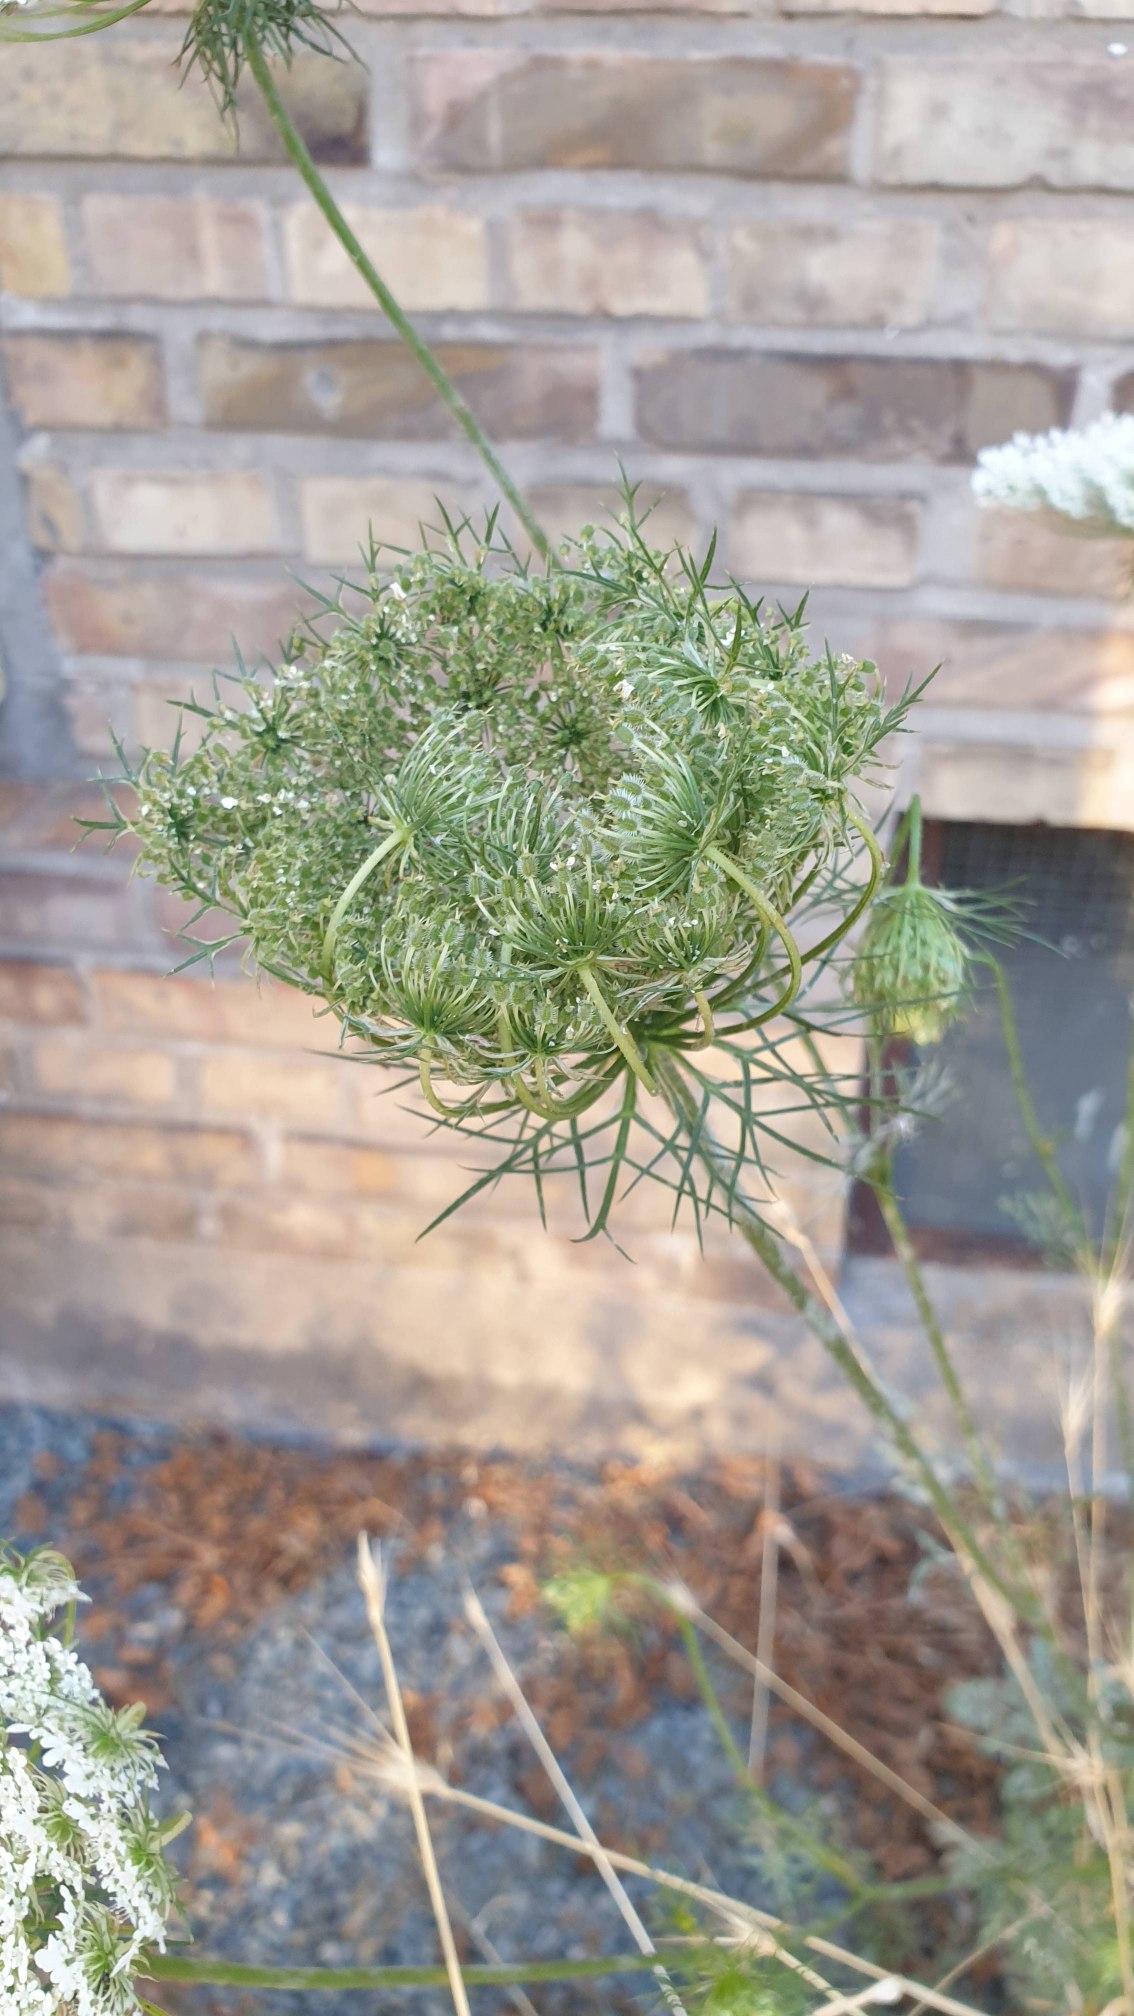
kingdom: Plantae
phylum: Tracheophyta
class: Magnoliopsida
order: Apiales
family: Apiaceae
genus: Daucus
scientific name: Daucus carota
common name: Gulerod
